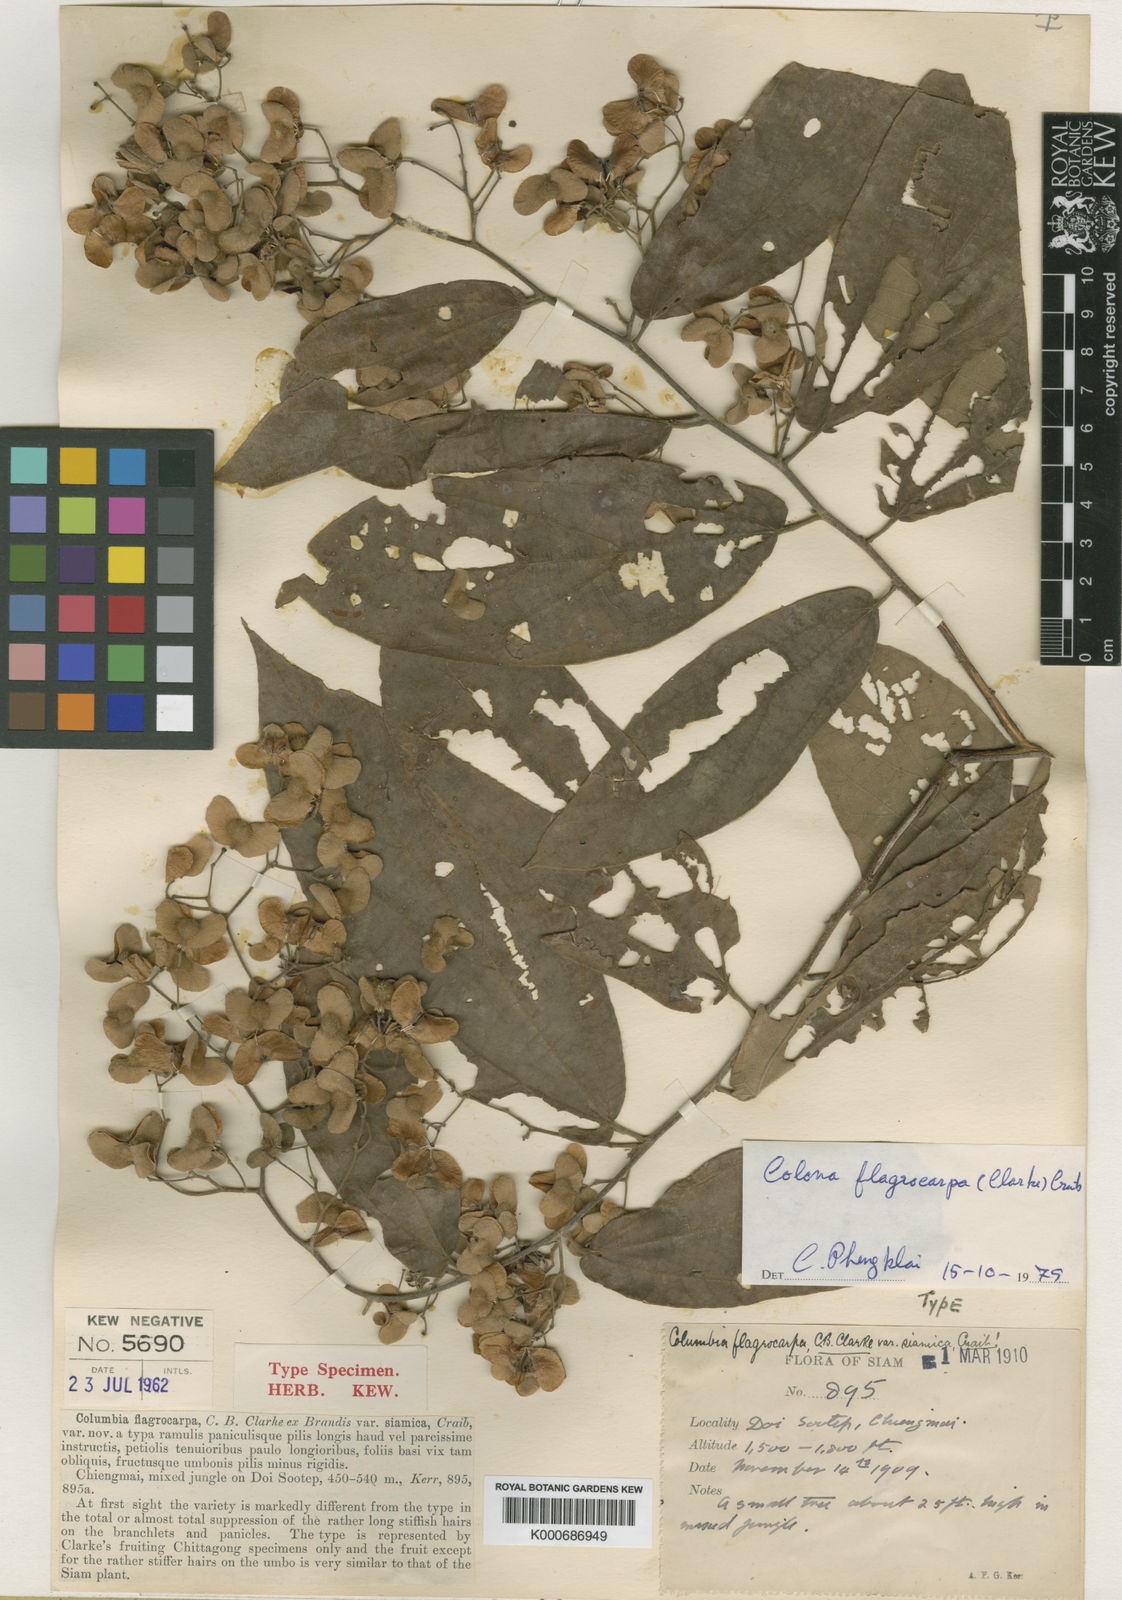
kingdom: Plantae
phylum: Tracheophyta
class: Magnoliopsida
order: Malvales
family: Malvaceae
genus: Colona
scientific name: Colona flagrocarpa
